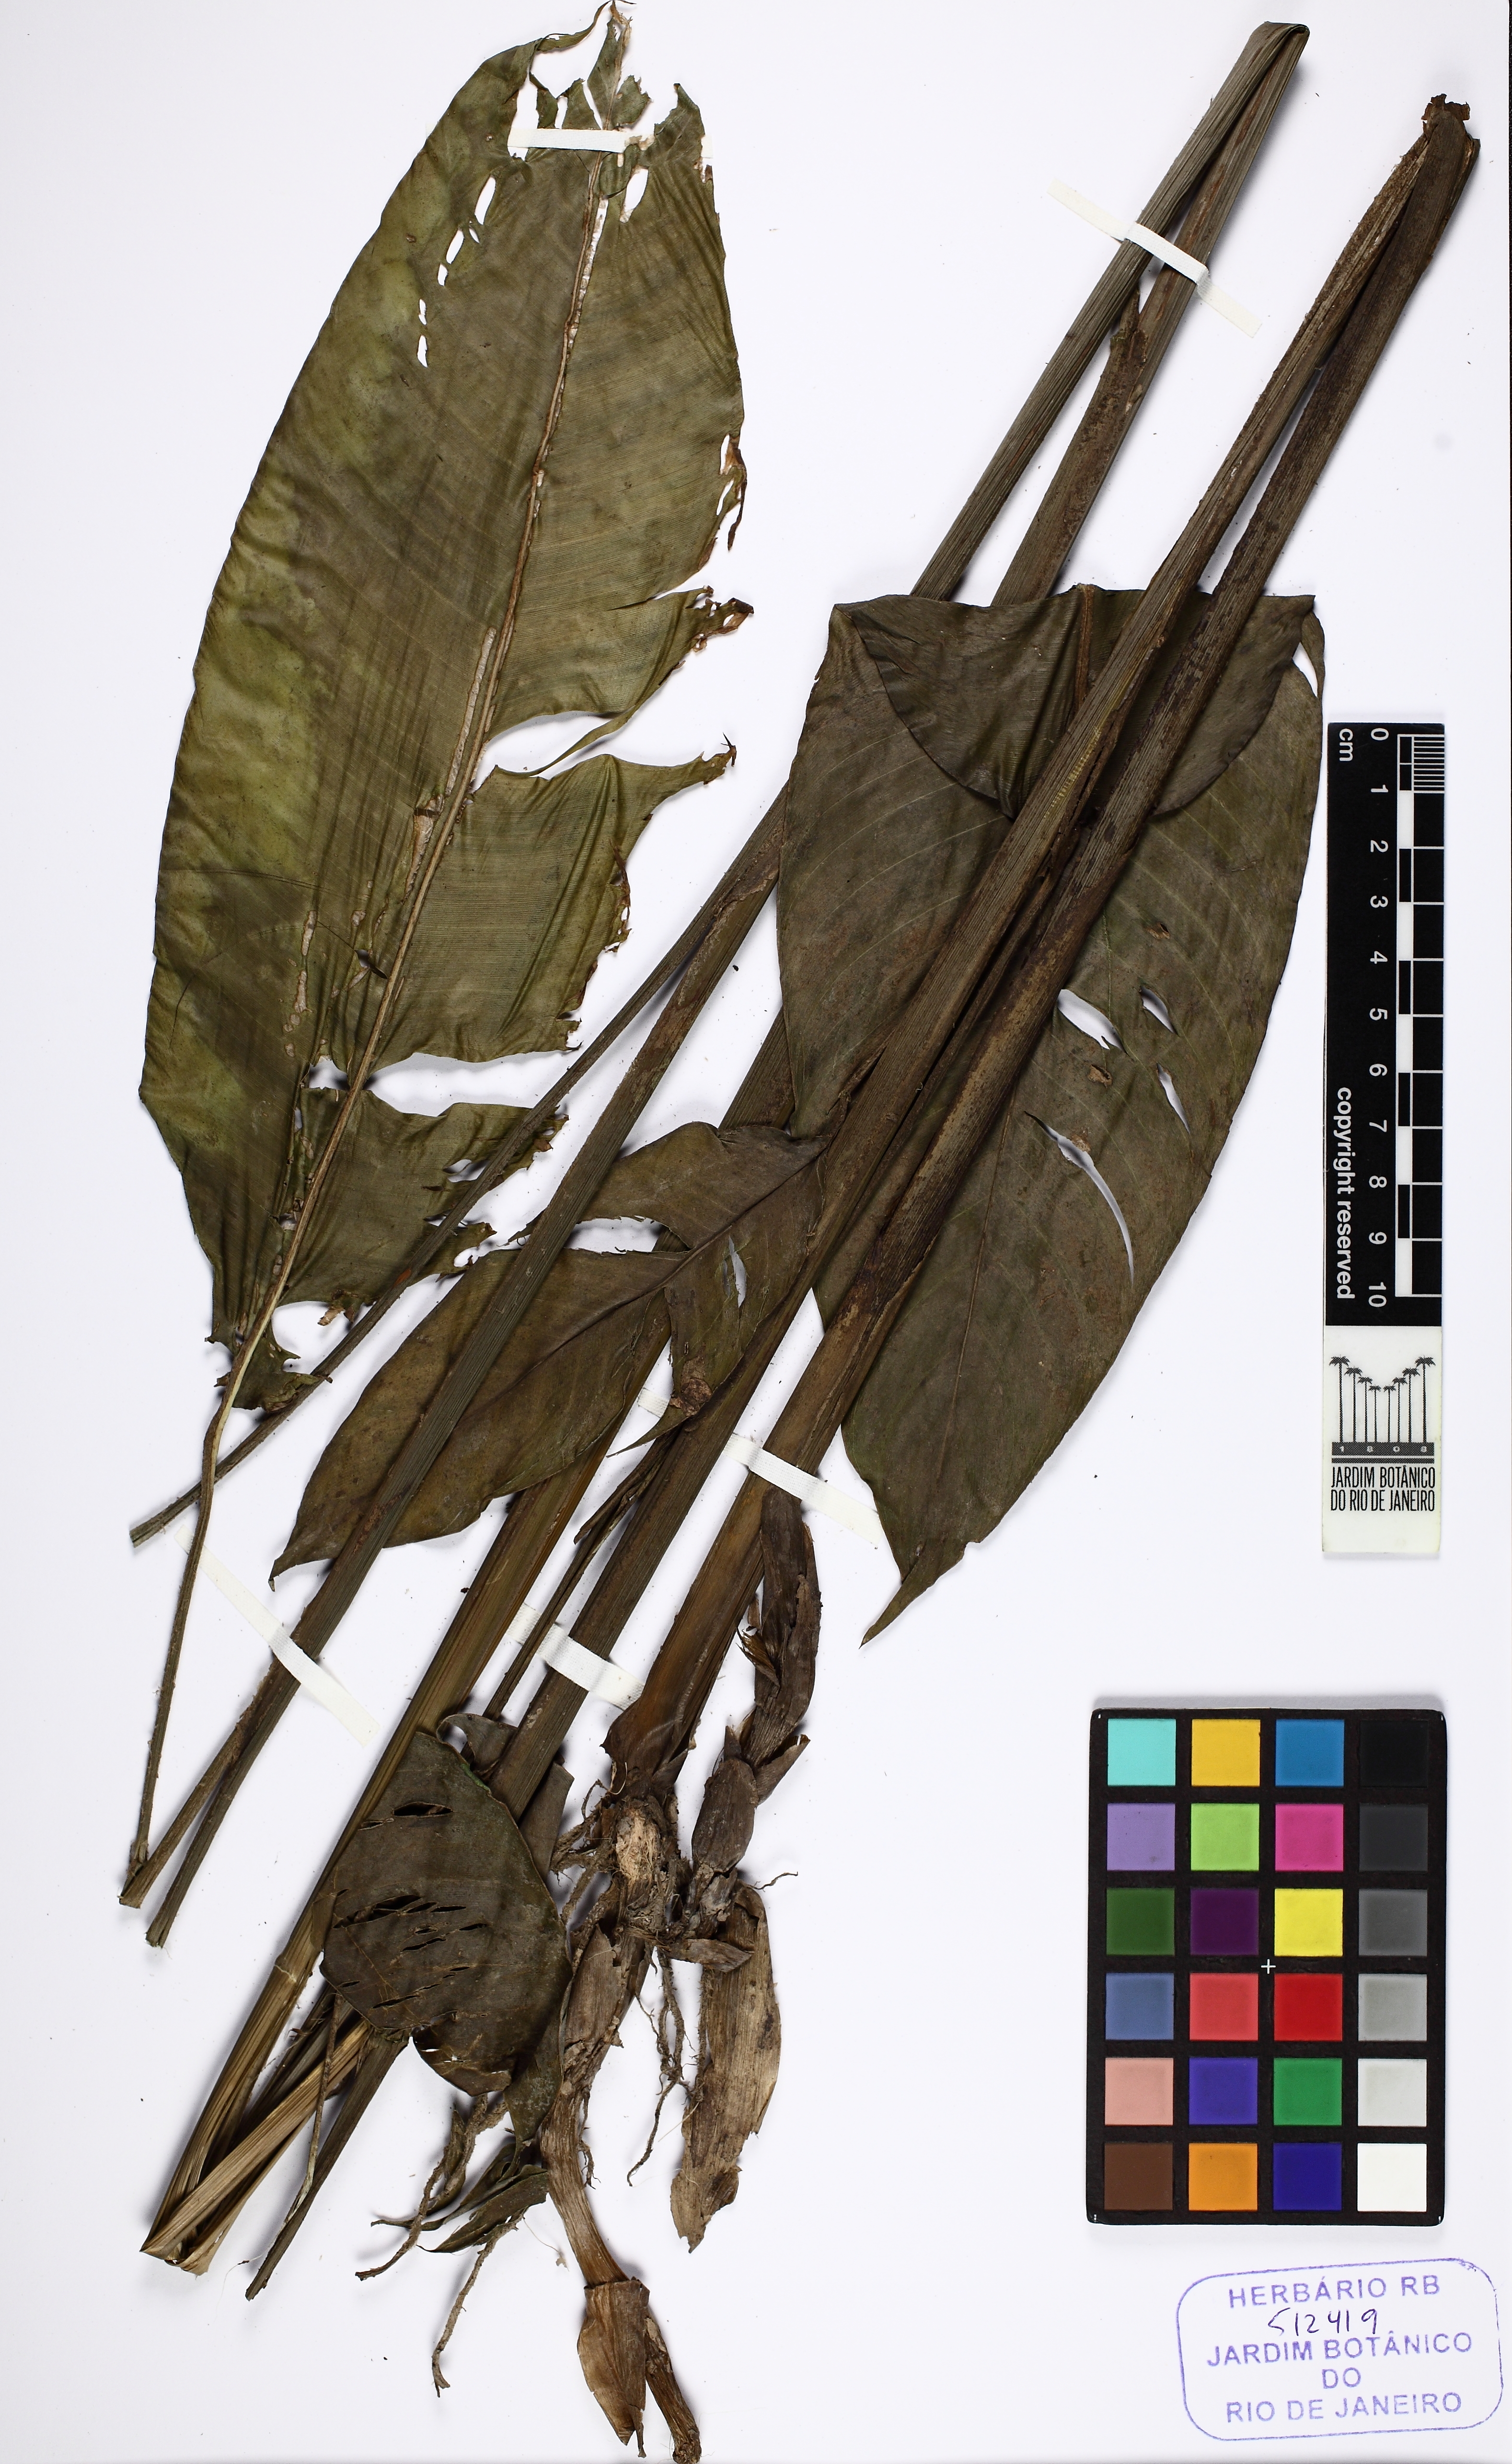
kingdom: Plantae
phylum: Tracheophyta
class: Liliopsida
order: Zingiberales
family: Heliconiaceae
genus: Heliconia
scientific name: Heliconia
